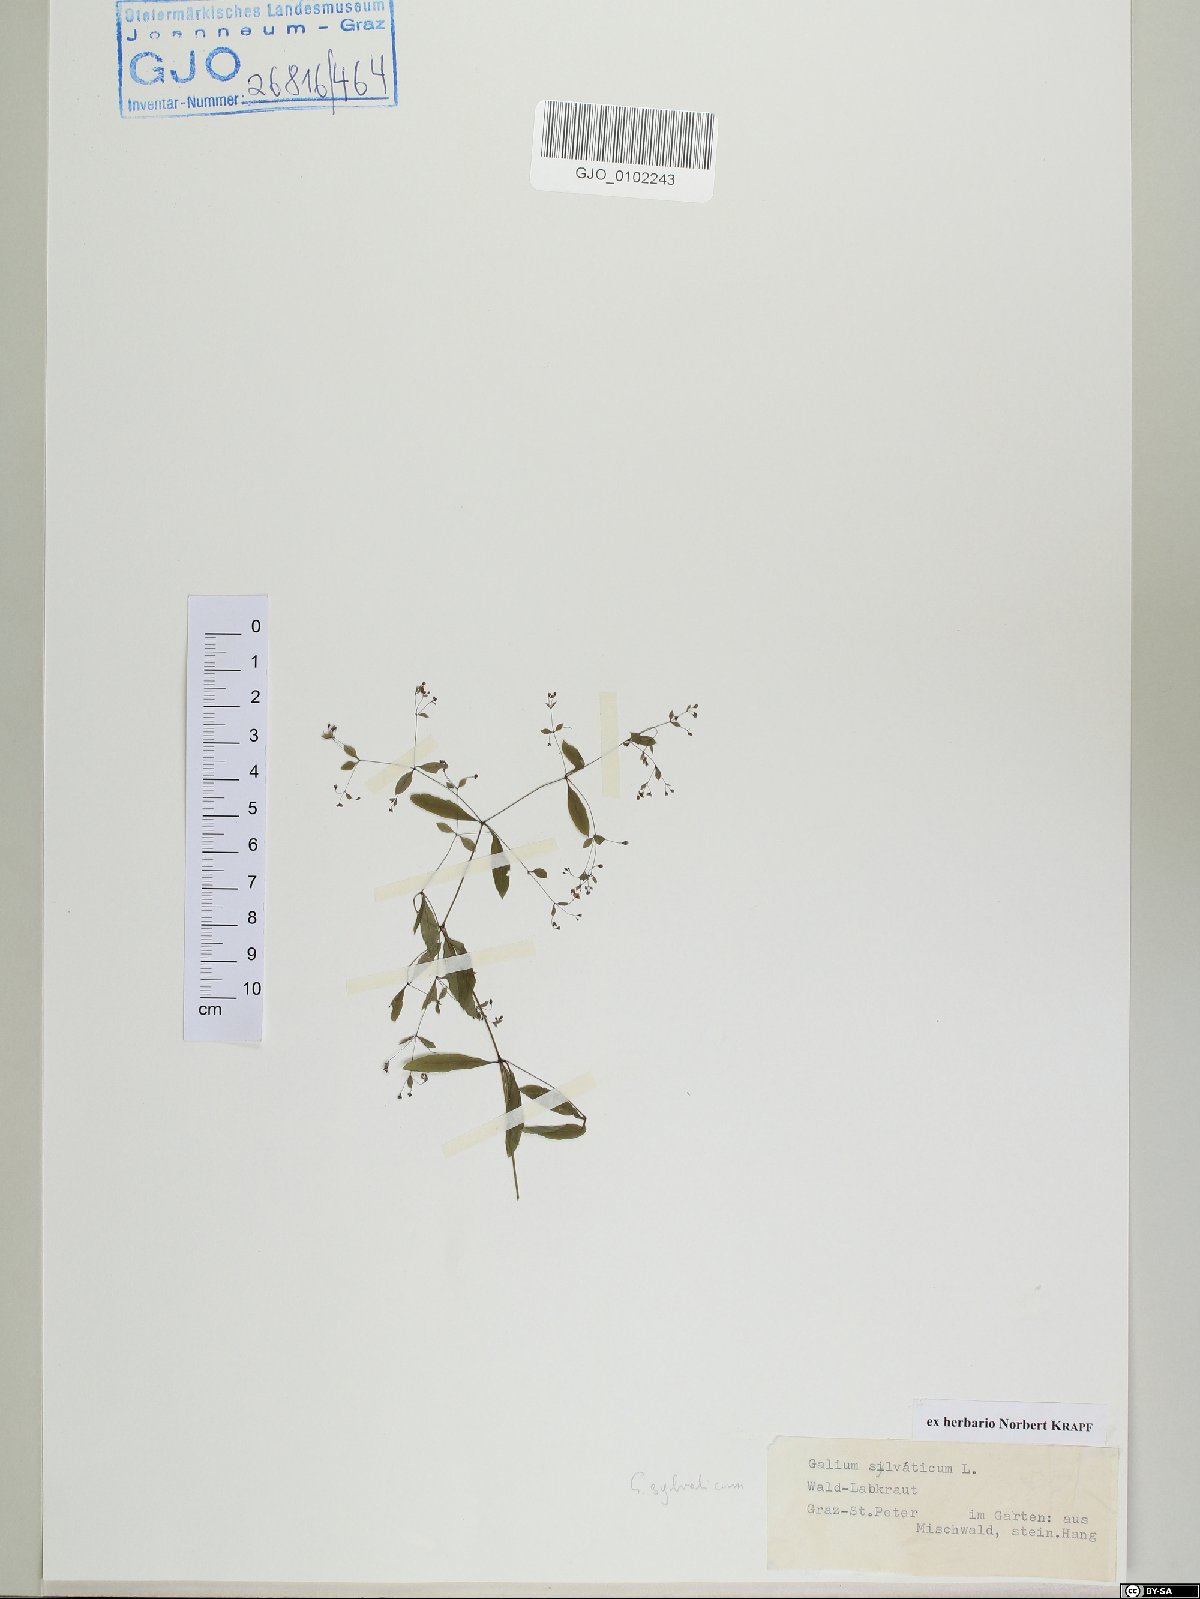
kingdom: Plantae
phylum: Tracheophyta
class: Magnoliopsida
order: Gentianales
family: Rubiaceae
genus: Galium
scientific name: Galium sylvaticum
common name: Wood bedstraw
